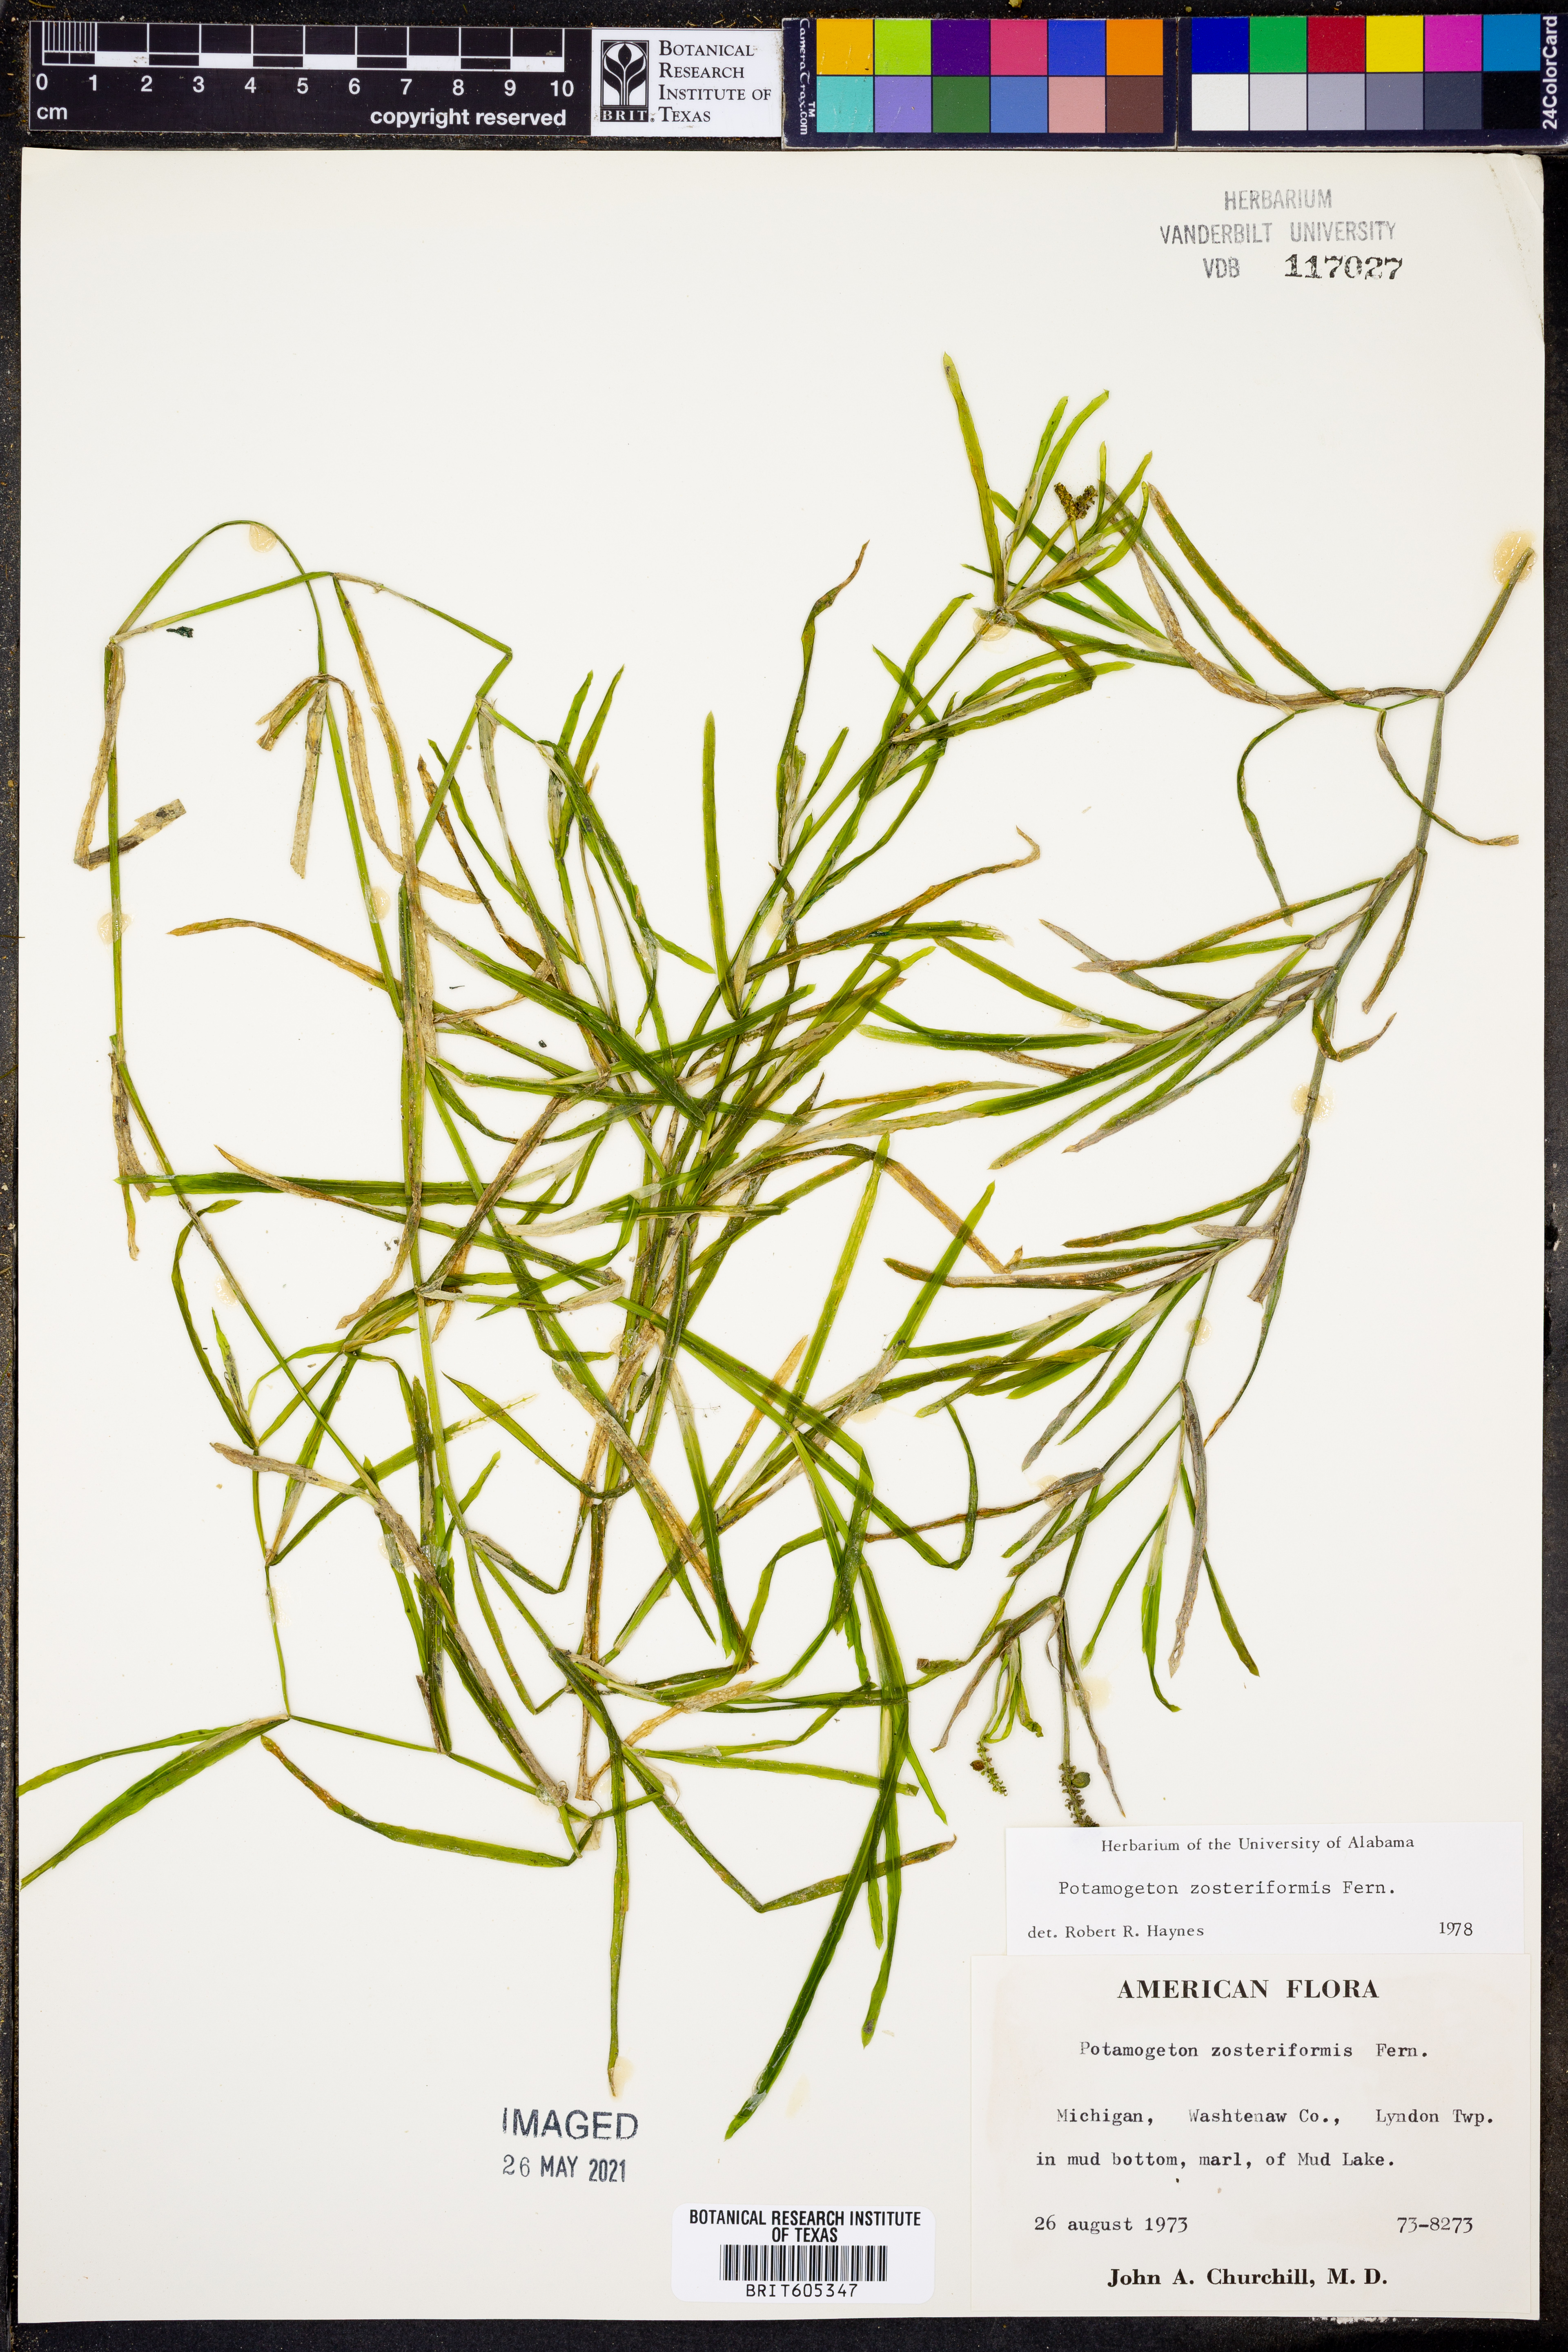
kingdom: Plantae
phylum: Tracheophyta
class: Liliopsida
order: Alismatales
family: Potamogetonaceae
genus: Potamogeton
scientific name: Potamogeton zosteriformis
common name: Eelgrass pondweed
